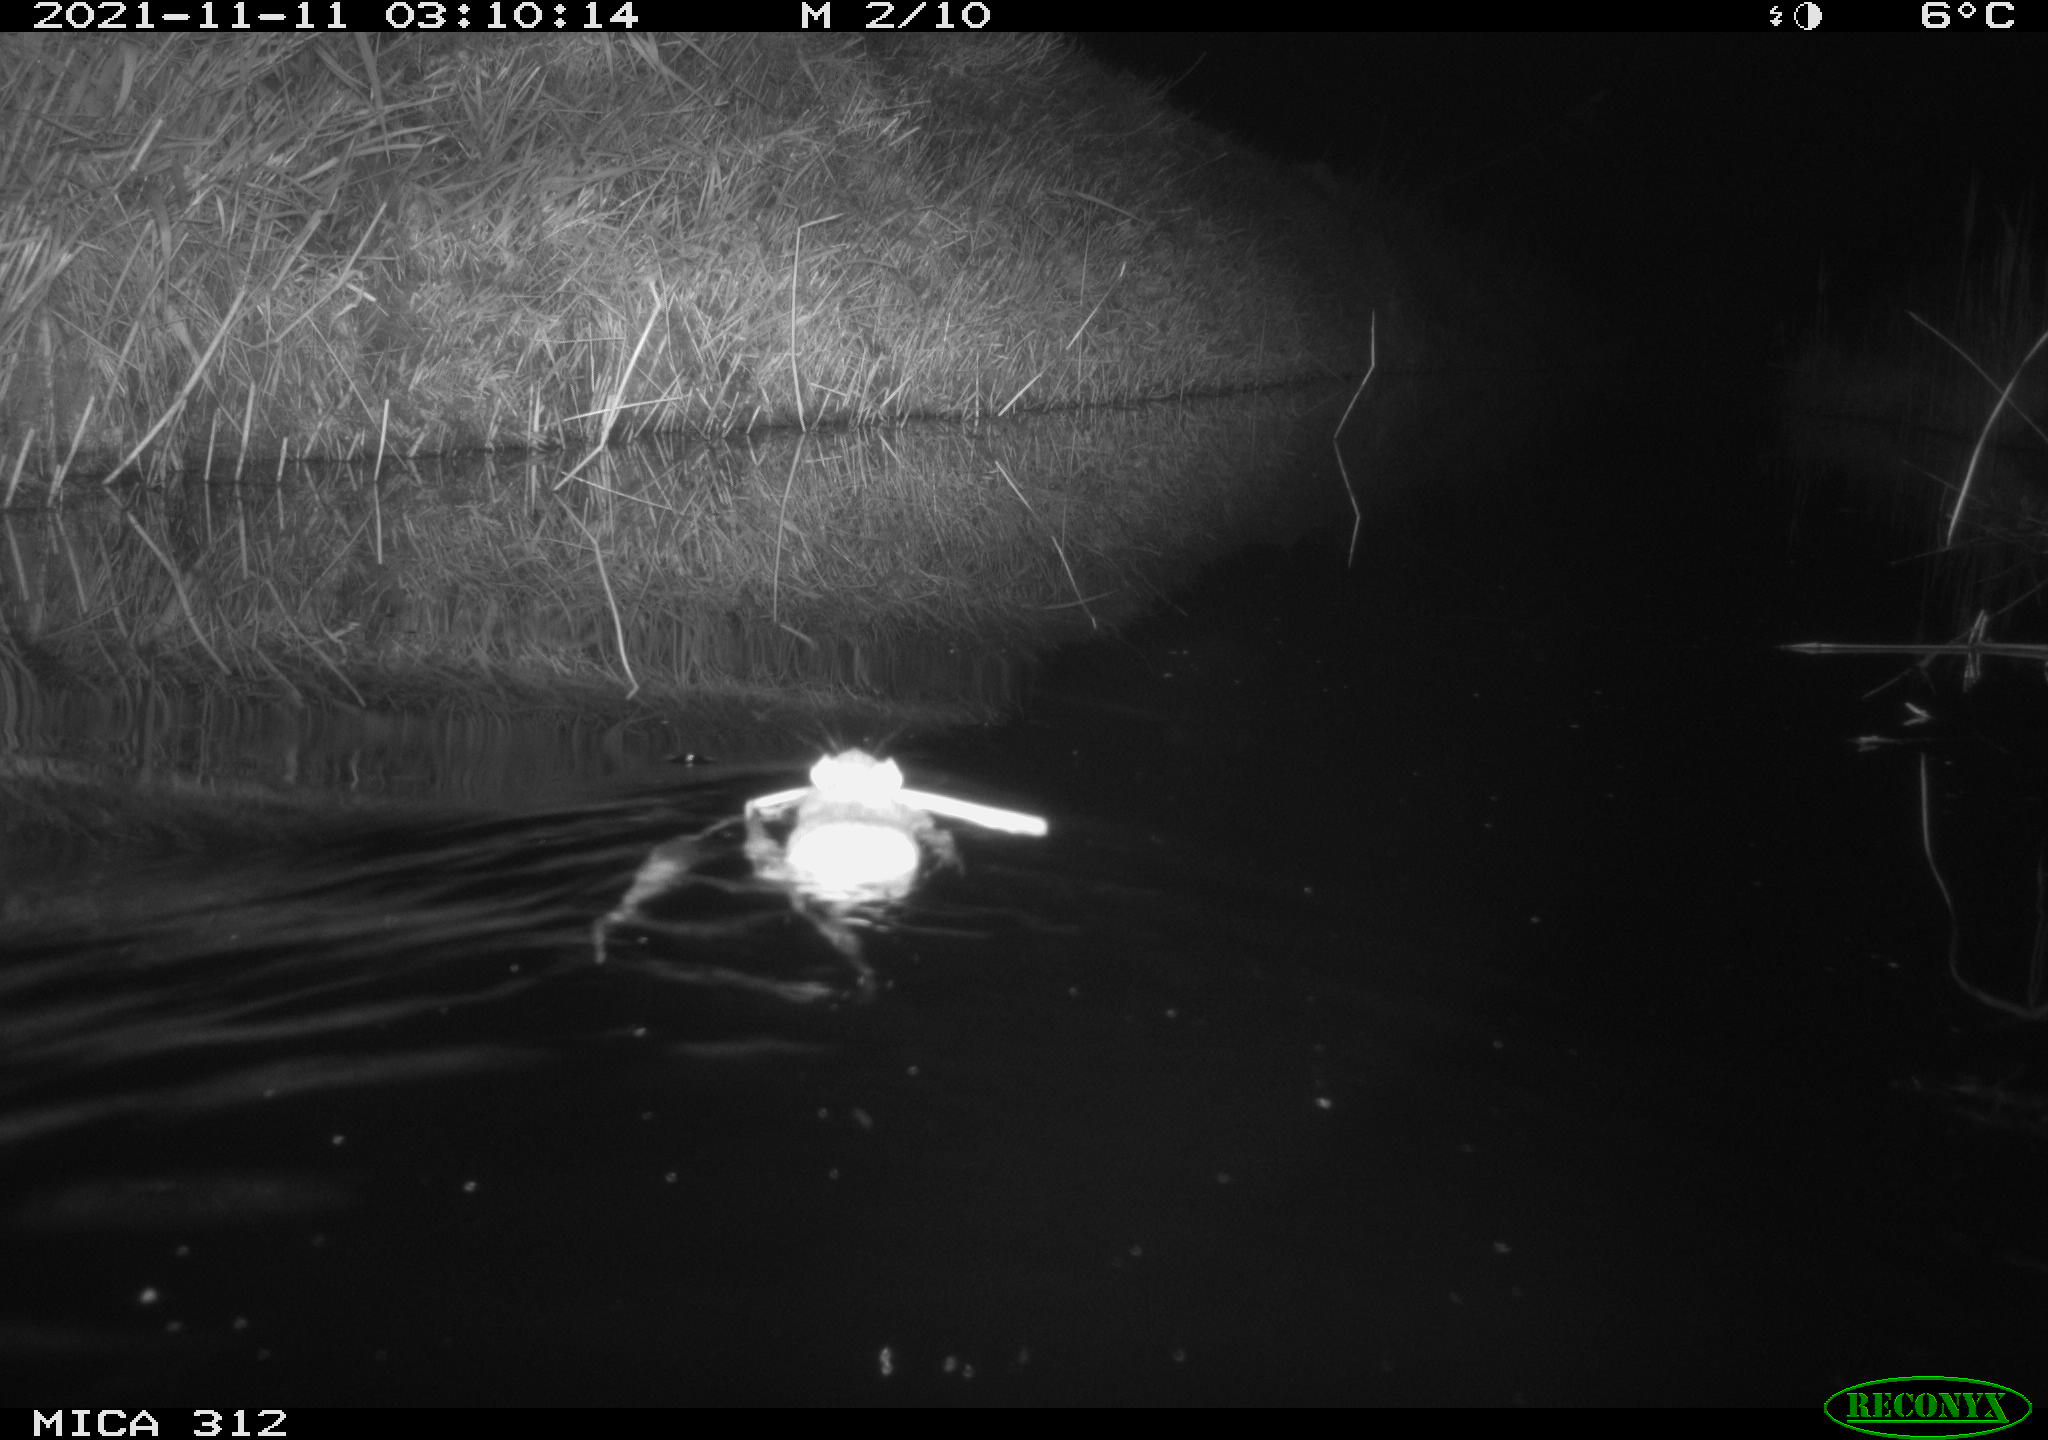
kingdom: Animalia
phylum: Chordata
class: Aves
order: Anseriformes
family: Anatidae
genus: Anas
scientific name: Anas
